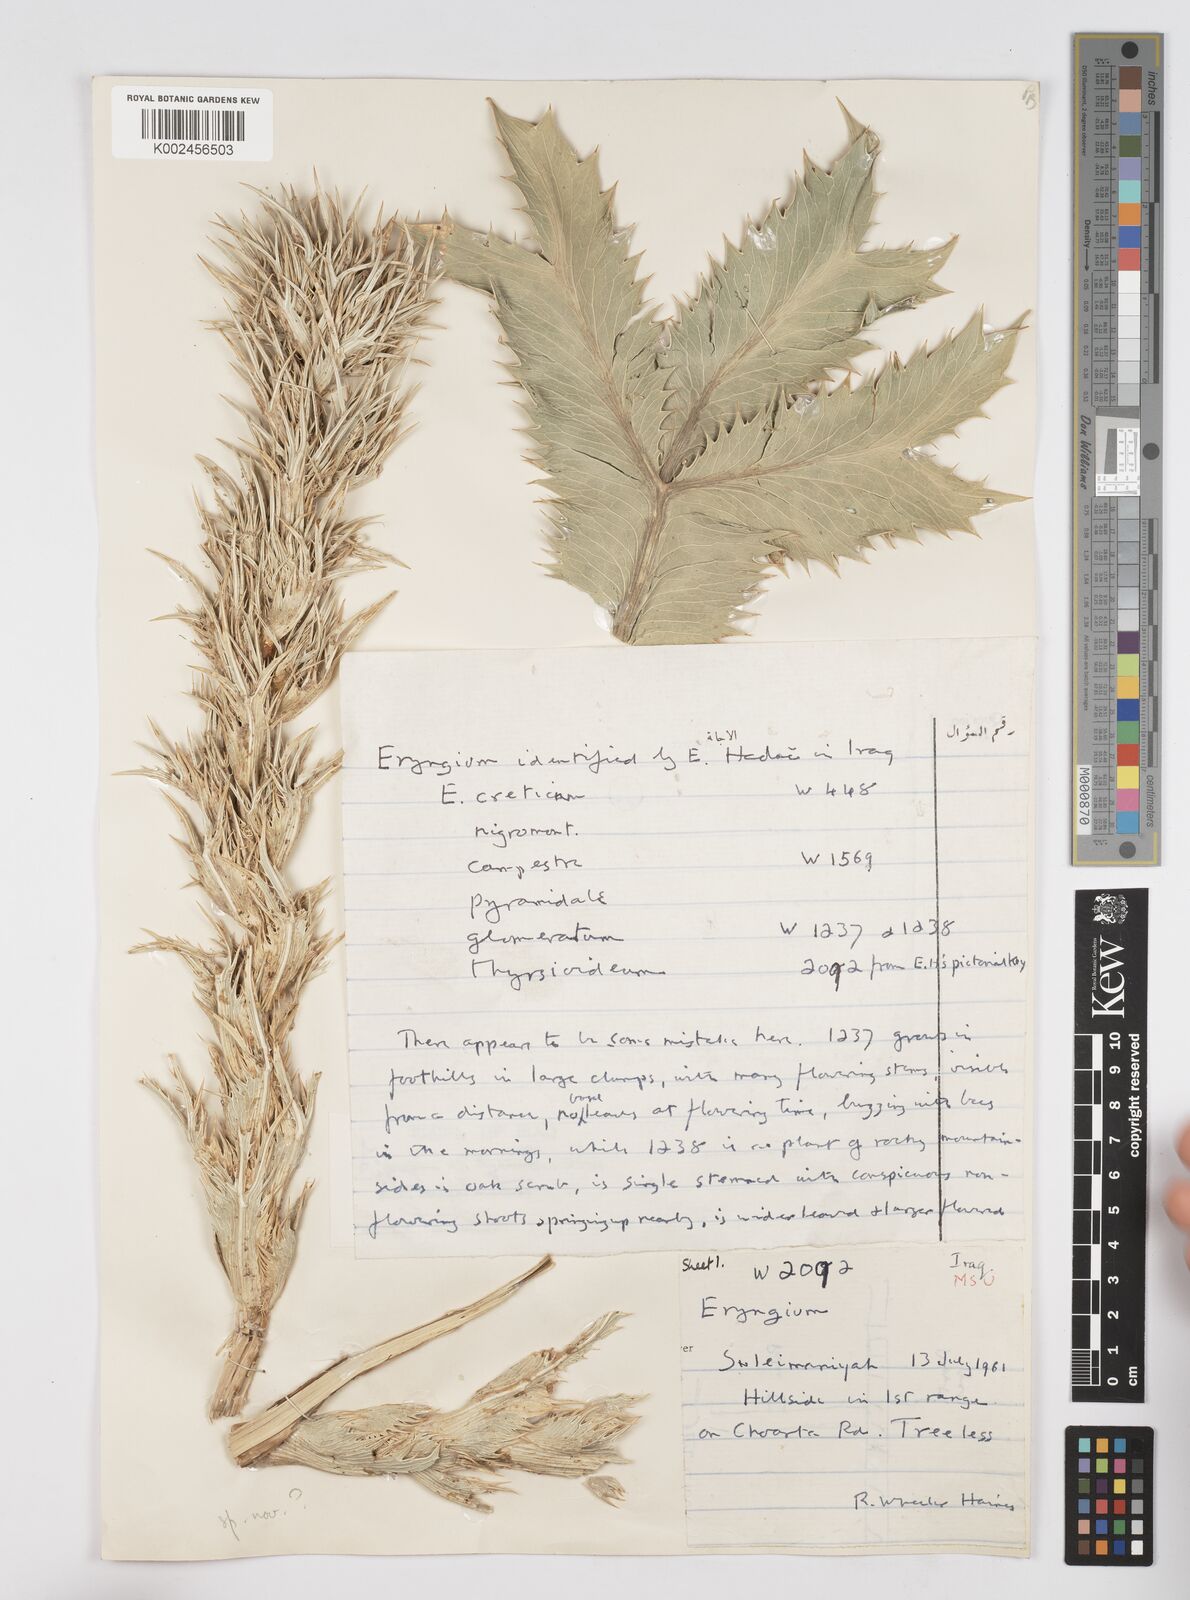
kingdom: Plantae
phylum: Tracheophyta
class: Magnoliopsida
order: Apiales
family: Apiaceae
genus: Eryngium
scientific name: Eryngium thyrsoideum
